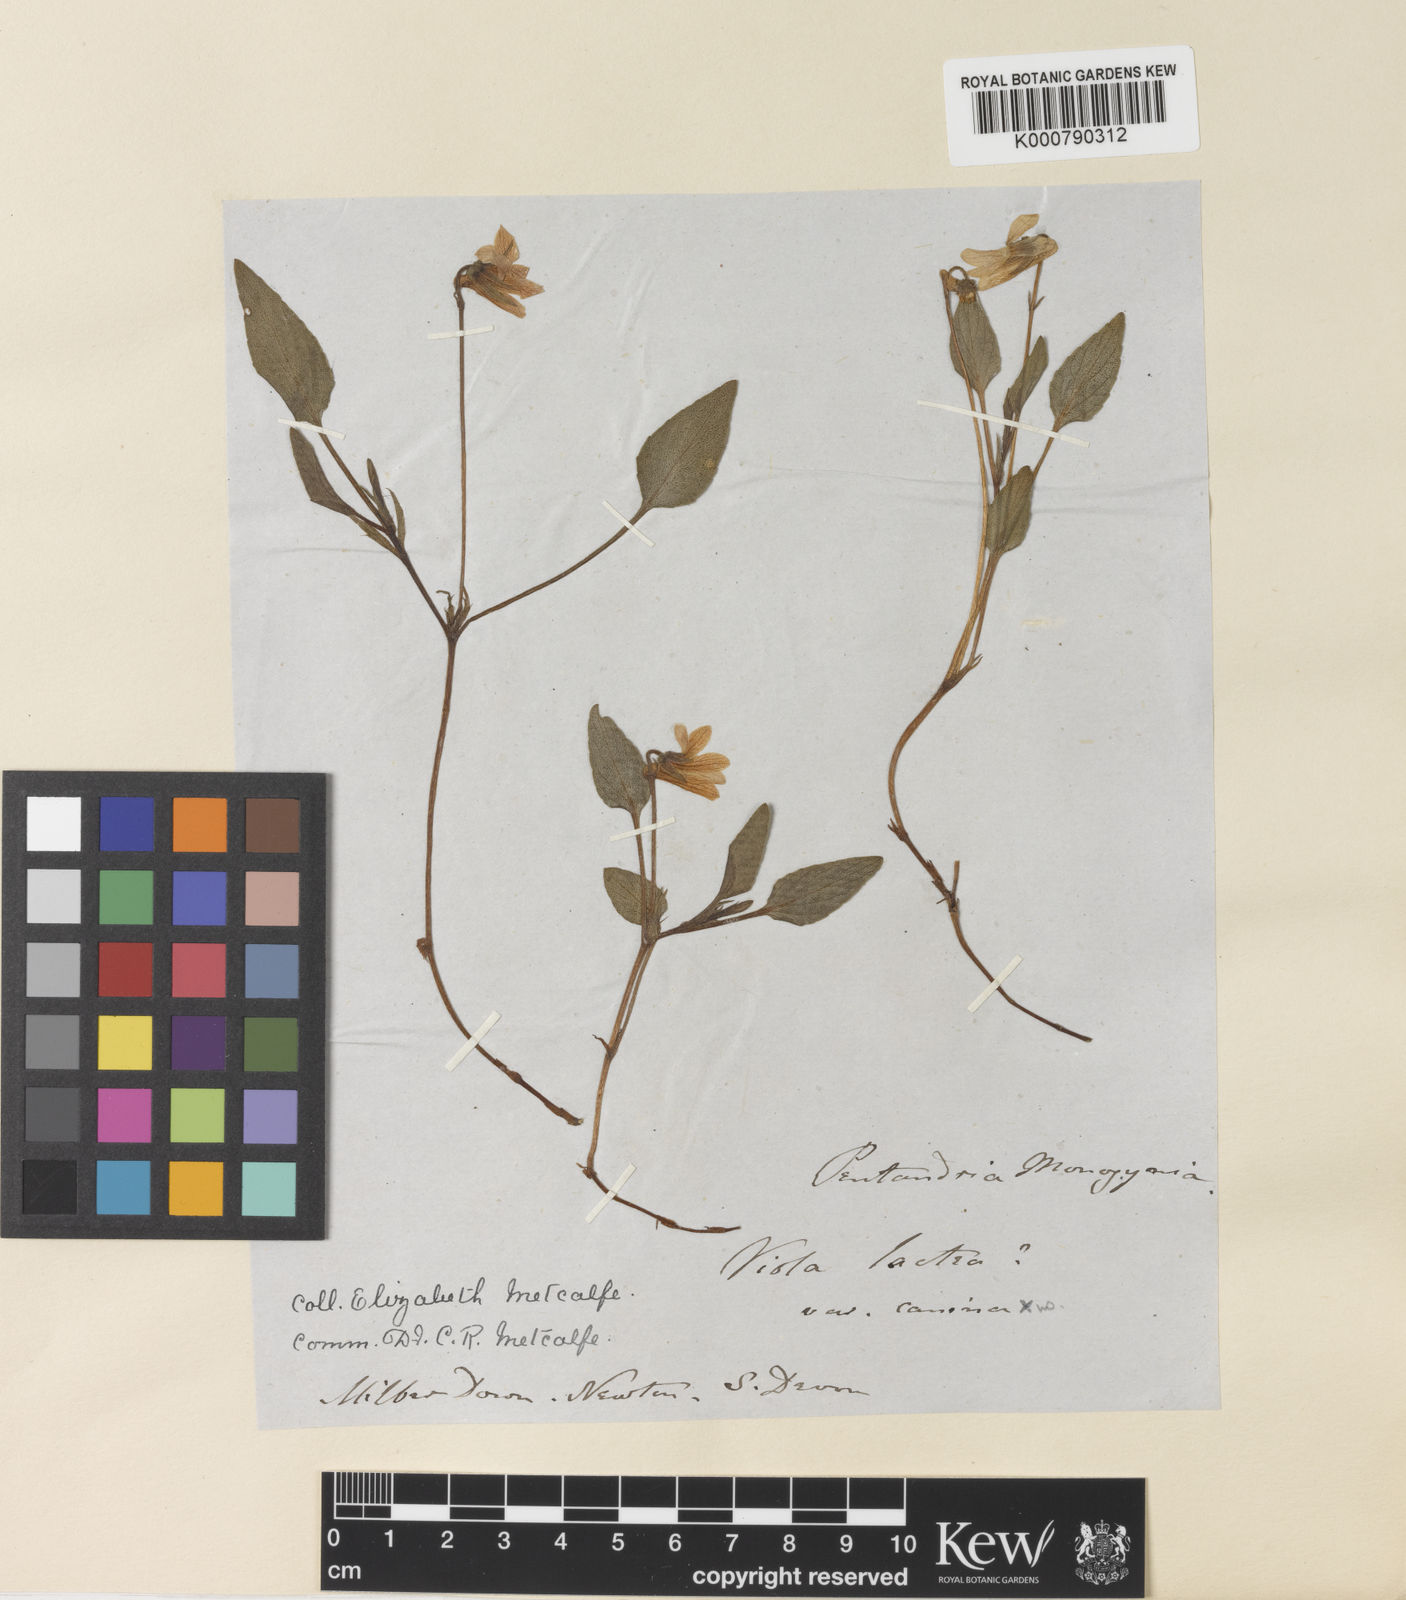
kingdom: Plantae
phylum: Tracheophyta
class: Magnoliopsida
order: Malpighiales
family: Violaceae
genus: Viola
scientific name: Viola lactea
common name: Pale dog-violet
